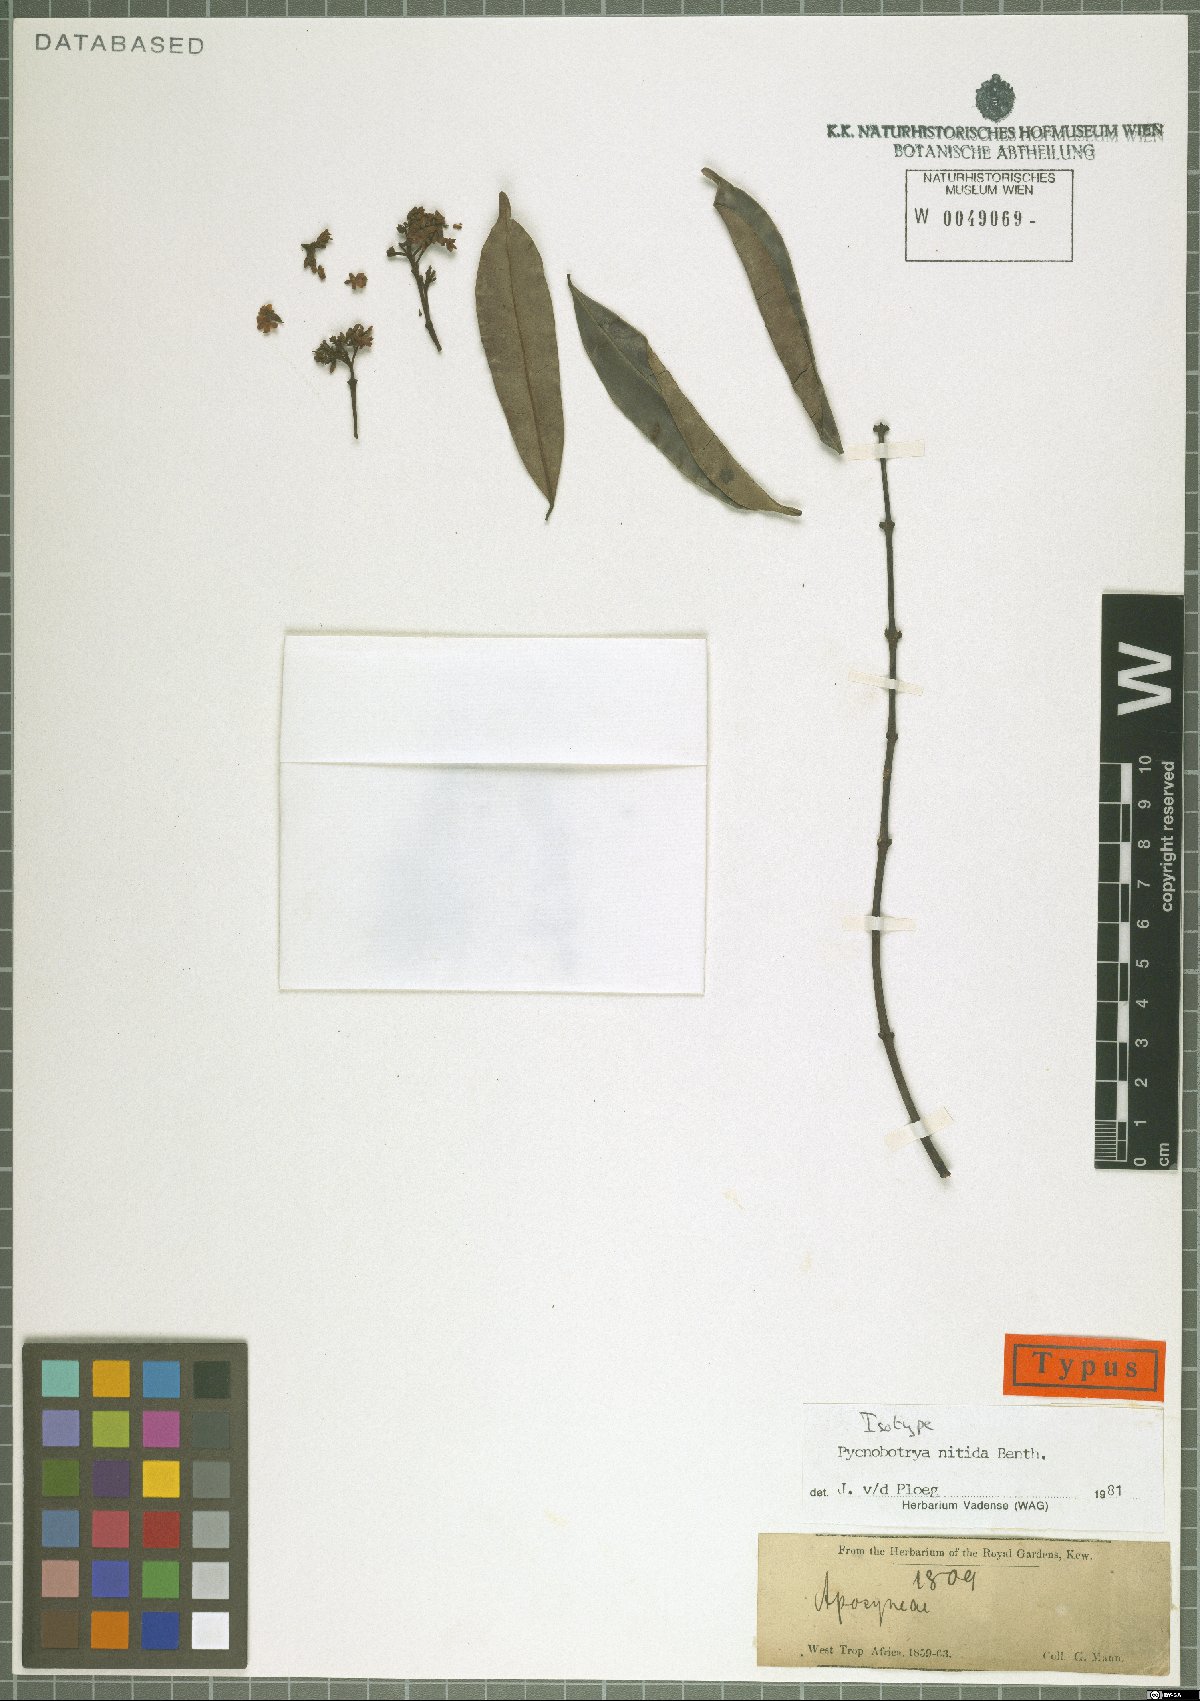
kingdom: Plantae
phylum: Tracheophyta
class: Magnoliopsida
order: Gentianales
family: Apocynaceae
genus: Pycnobotrya
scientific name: Pycnobotrya nitida
